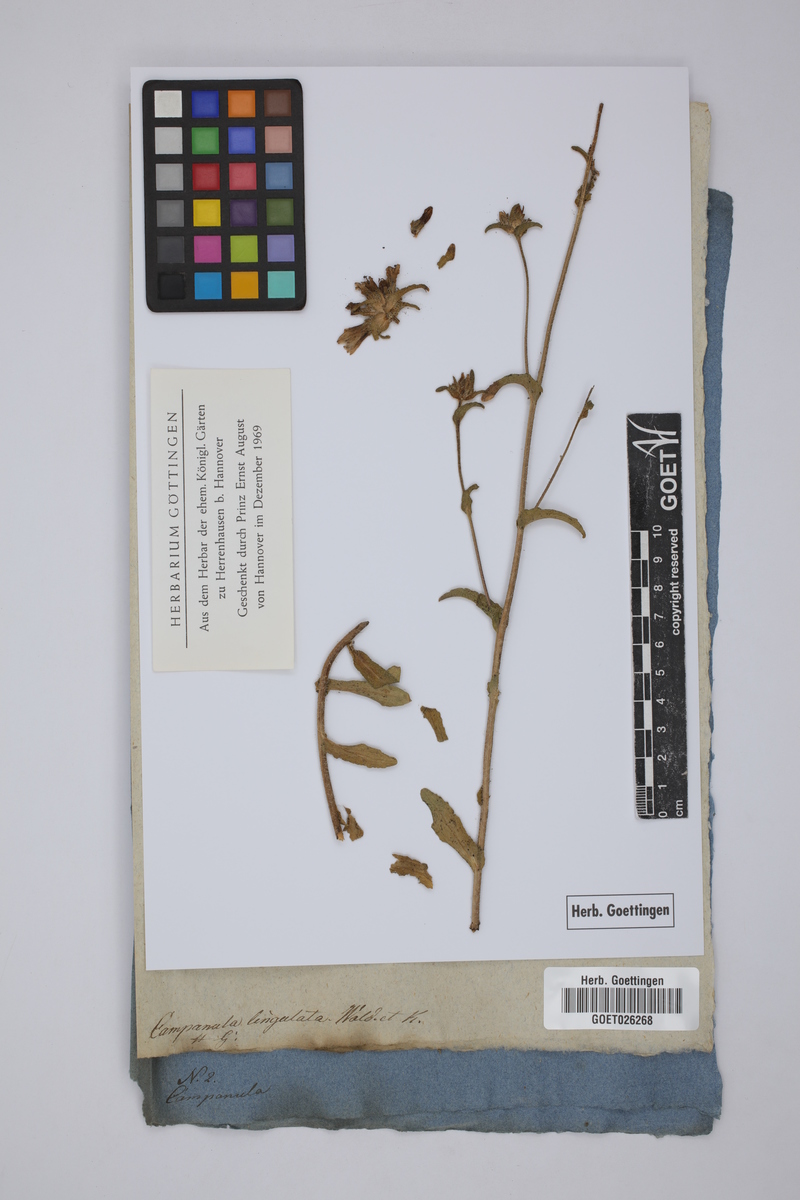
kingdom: Plantae
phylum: Tracheophyta
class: Magnoliopsida
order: Asterales
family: Campanulaceae
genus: Campanula
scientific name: Campanula lingulata
